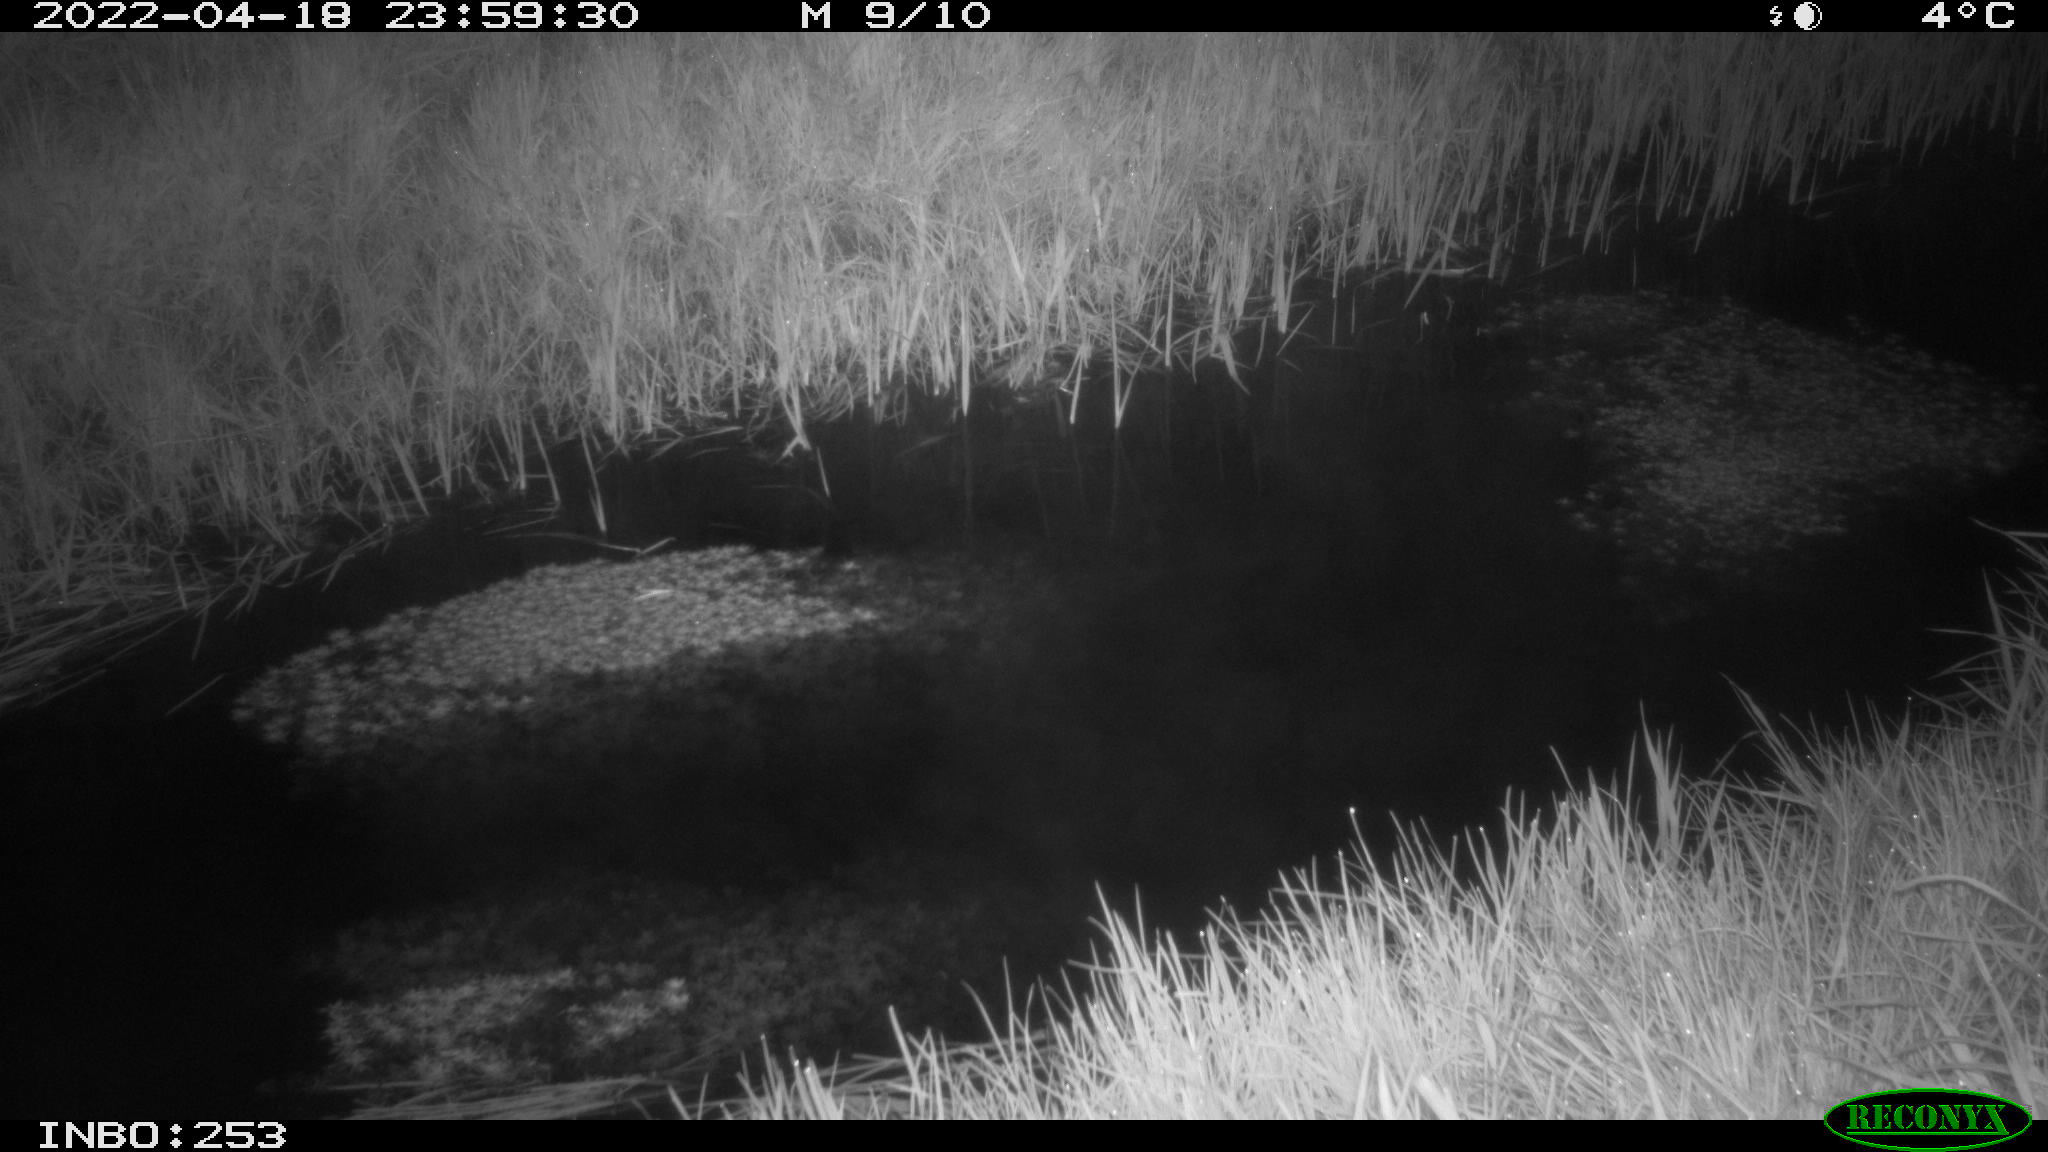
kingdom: Animalia
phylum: Chordata
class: Aves
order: Anseriformes
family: Anatidae
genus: Anas
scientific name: Anas platyrhynchos
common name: Mallard
